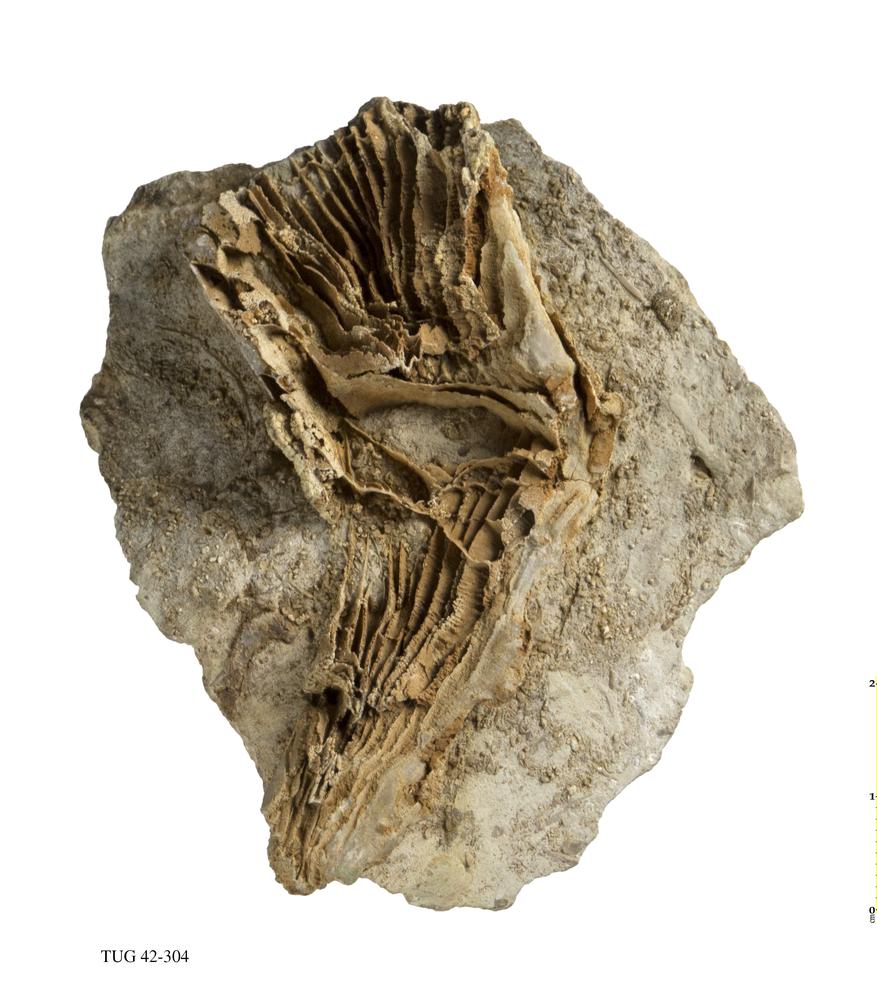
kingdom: Animalia
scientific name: Animalia
